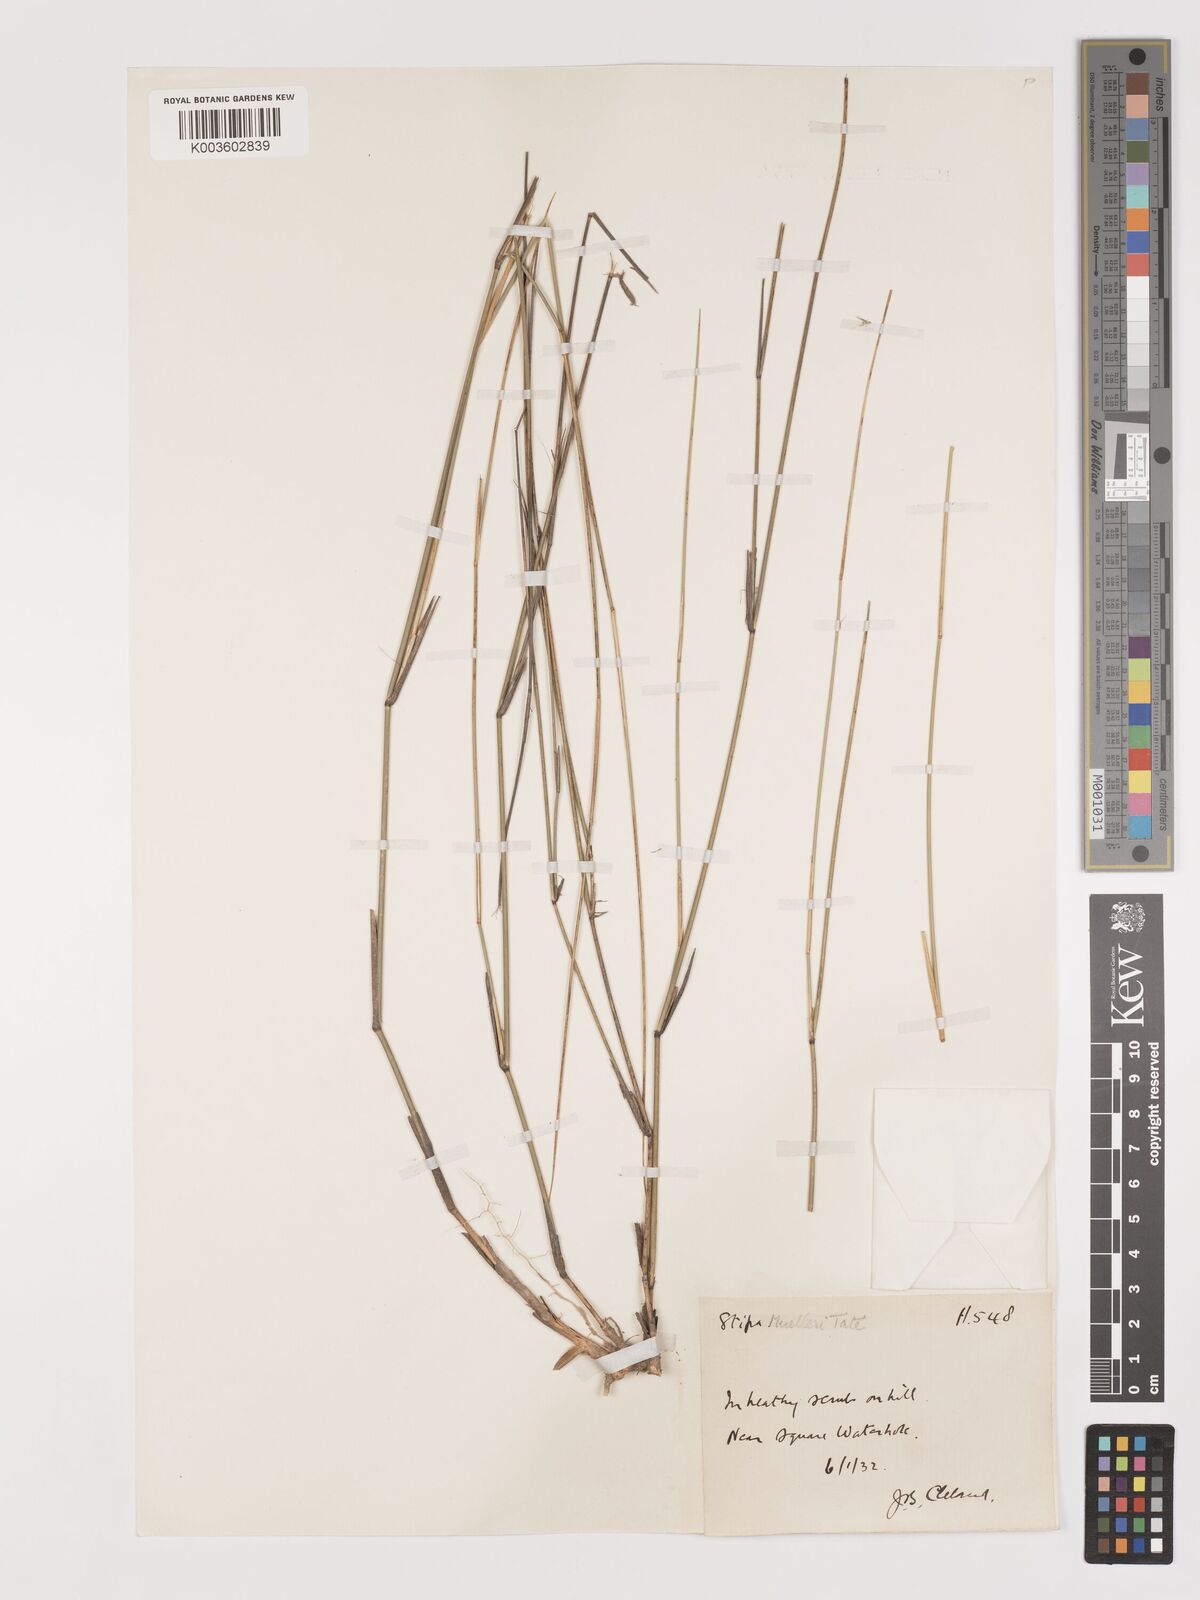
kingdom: Plantae
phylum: Tracheophyta
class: Liliopsida
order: Poales
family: Poaceae
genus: Austrostipa
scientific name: Austrostipa muelleri
